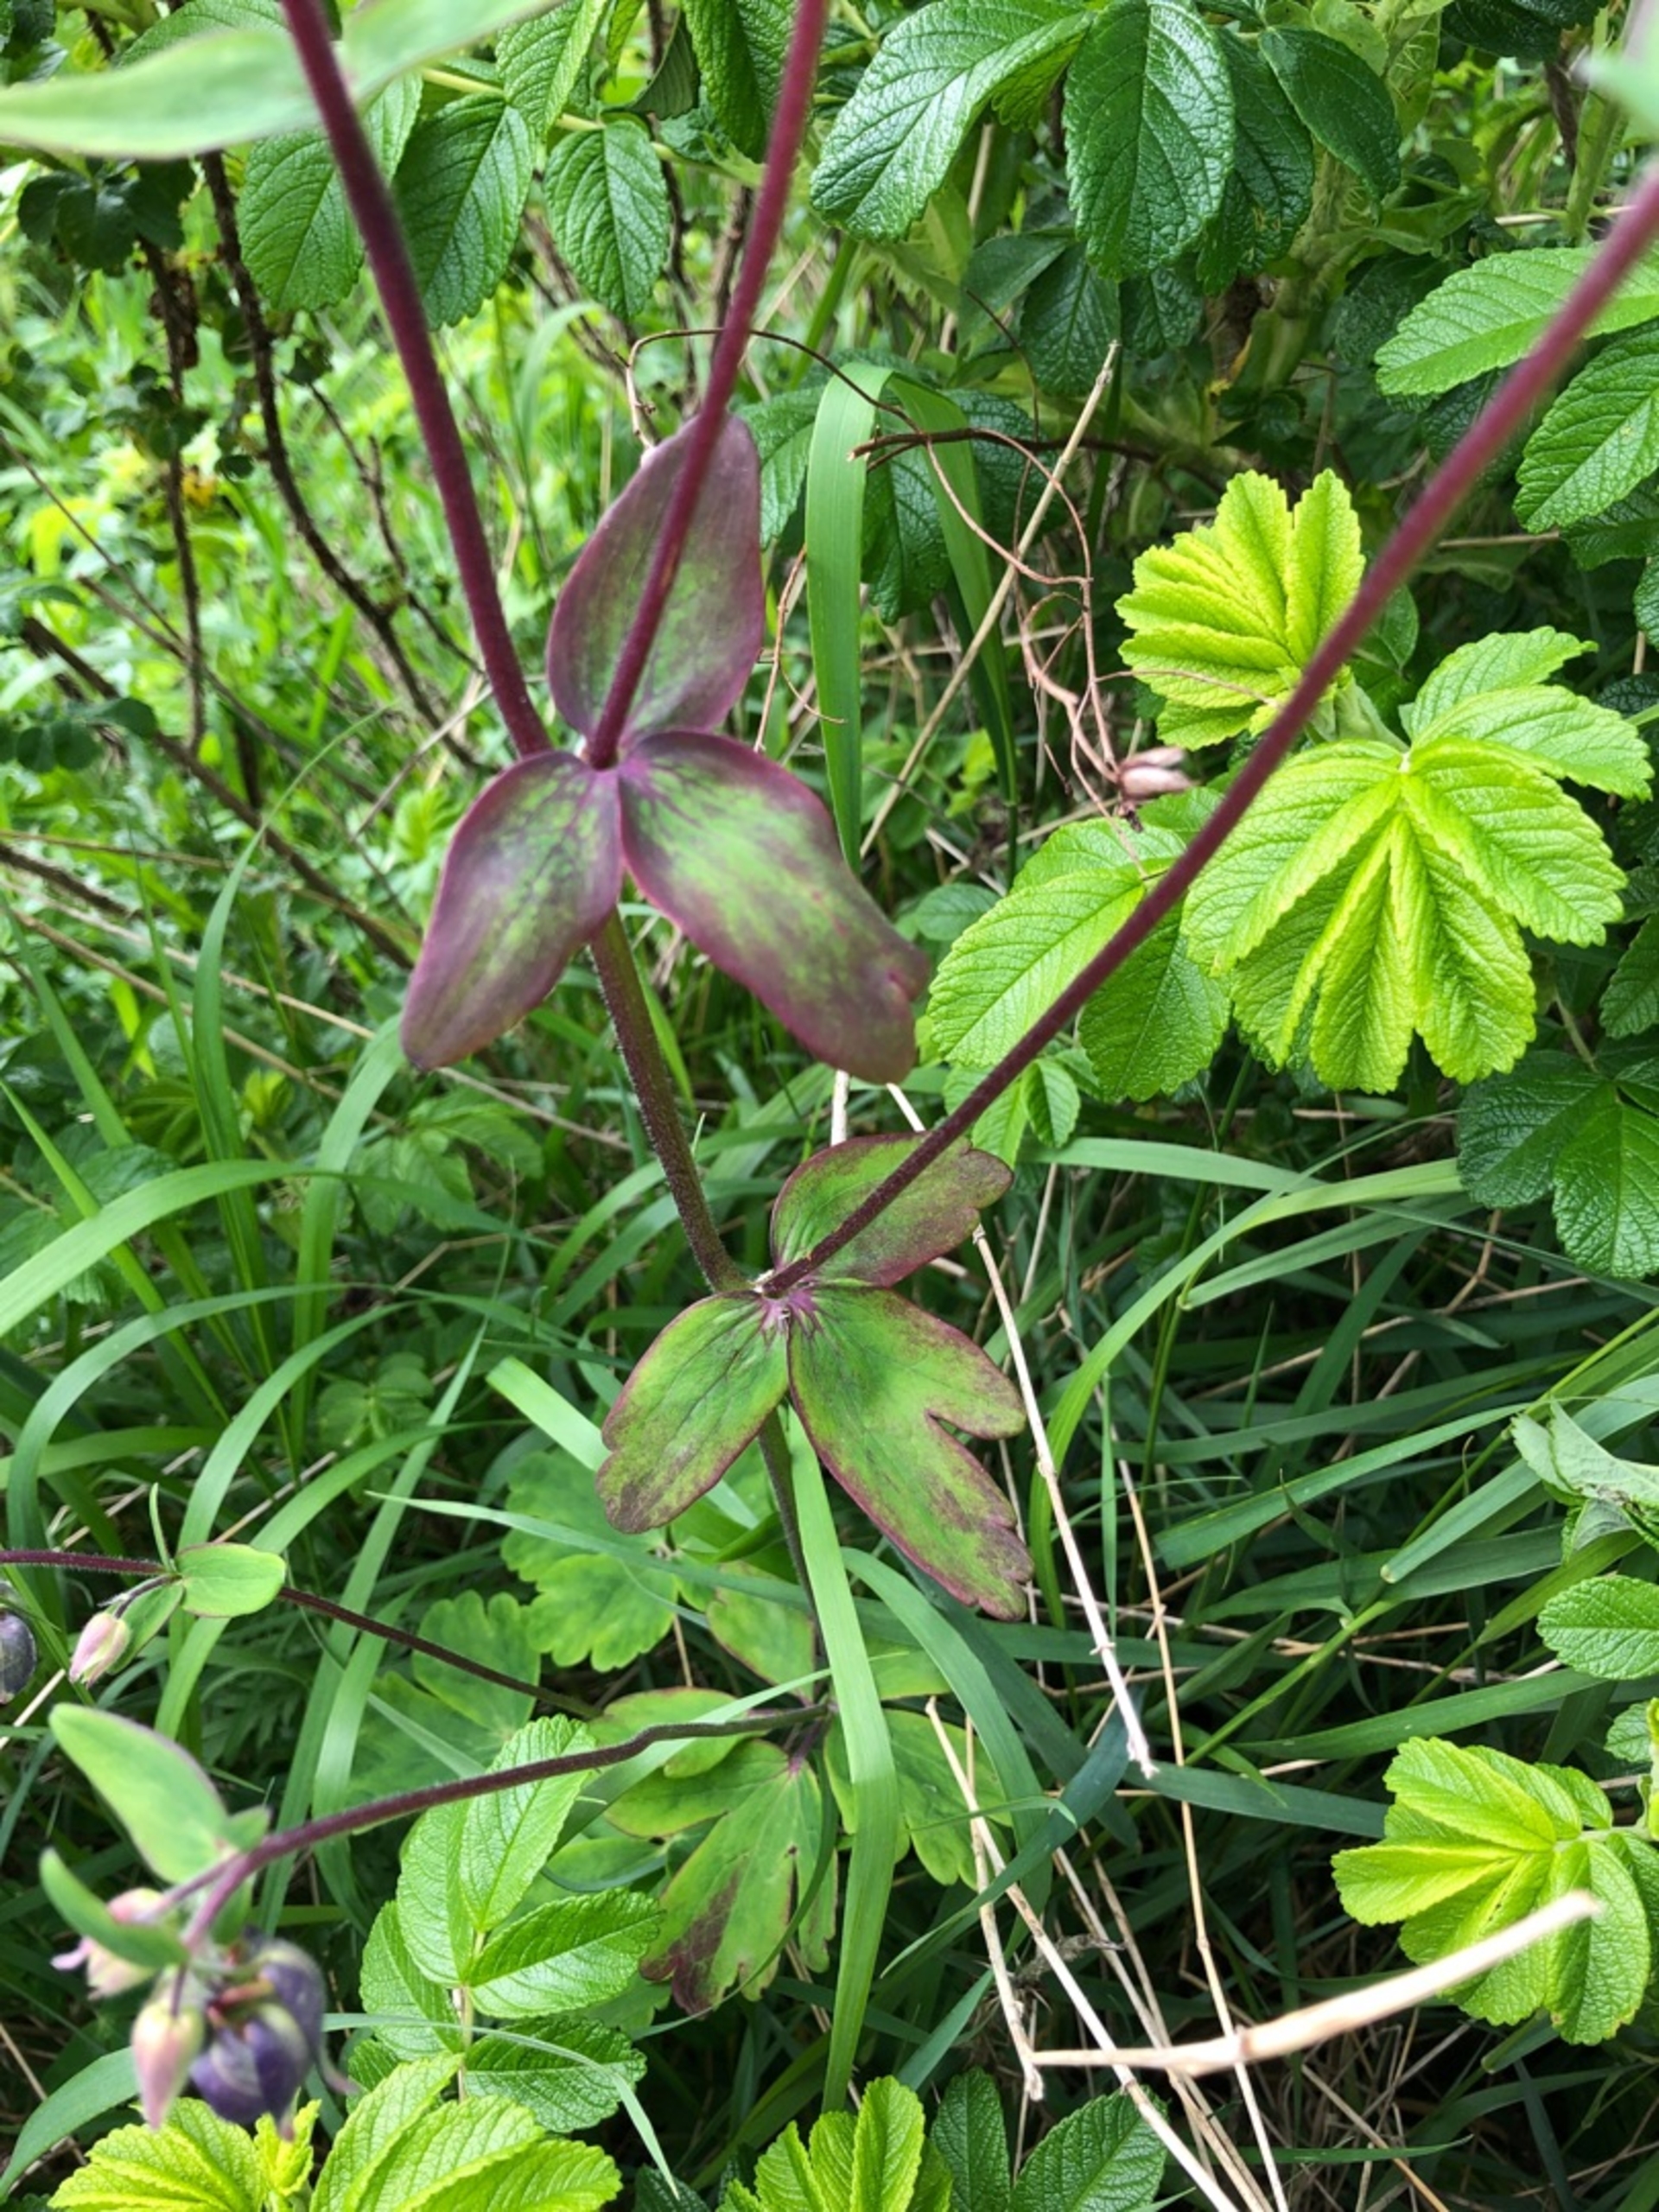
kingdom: Plantae
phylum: Tracheophyta
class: Magnoliopsida
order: Ranunculales
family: Ranunculaceae
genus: Aquilegia
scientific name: Aquilegia vulgaris
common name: Akeleje
